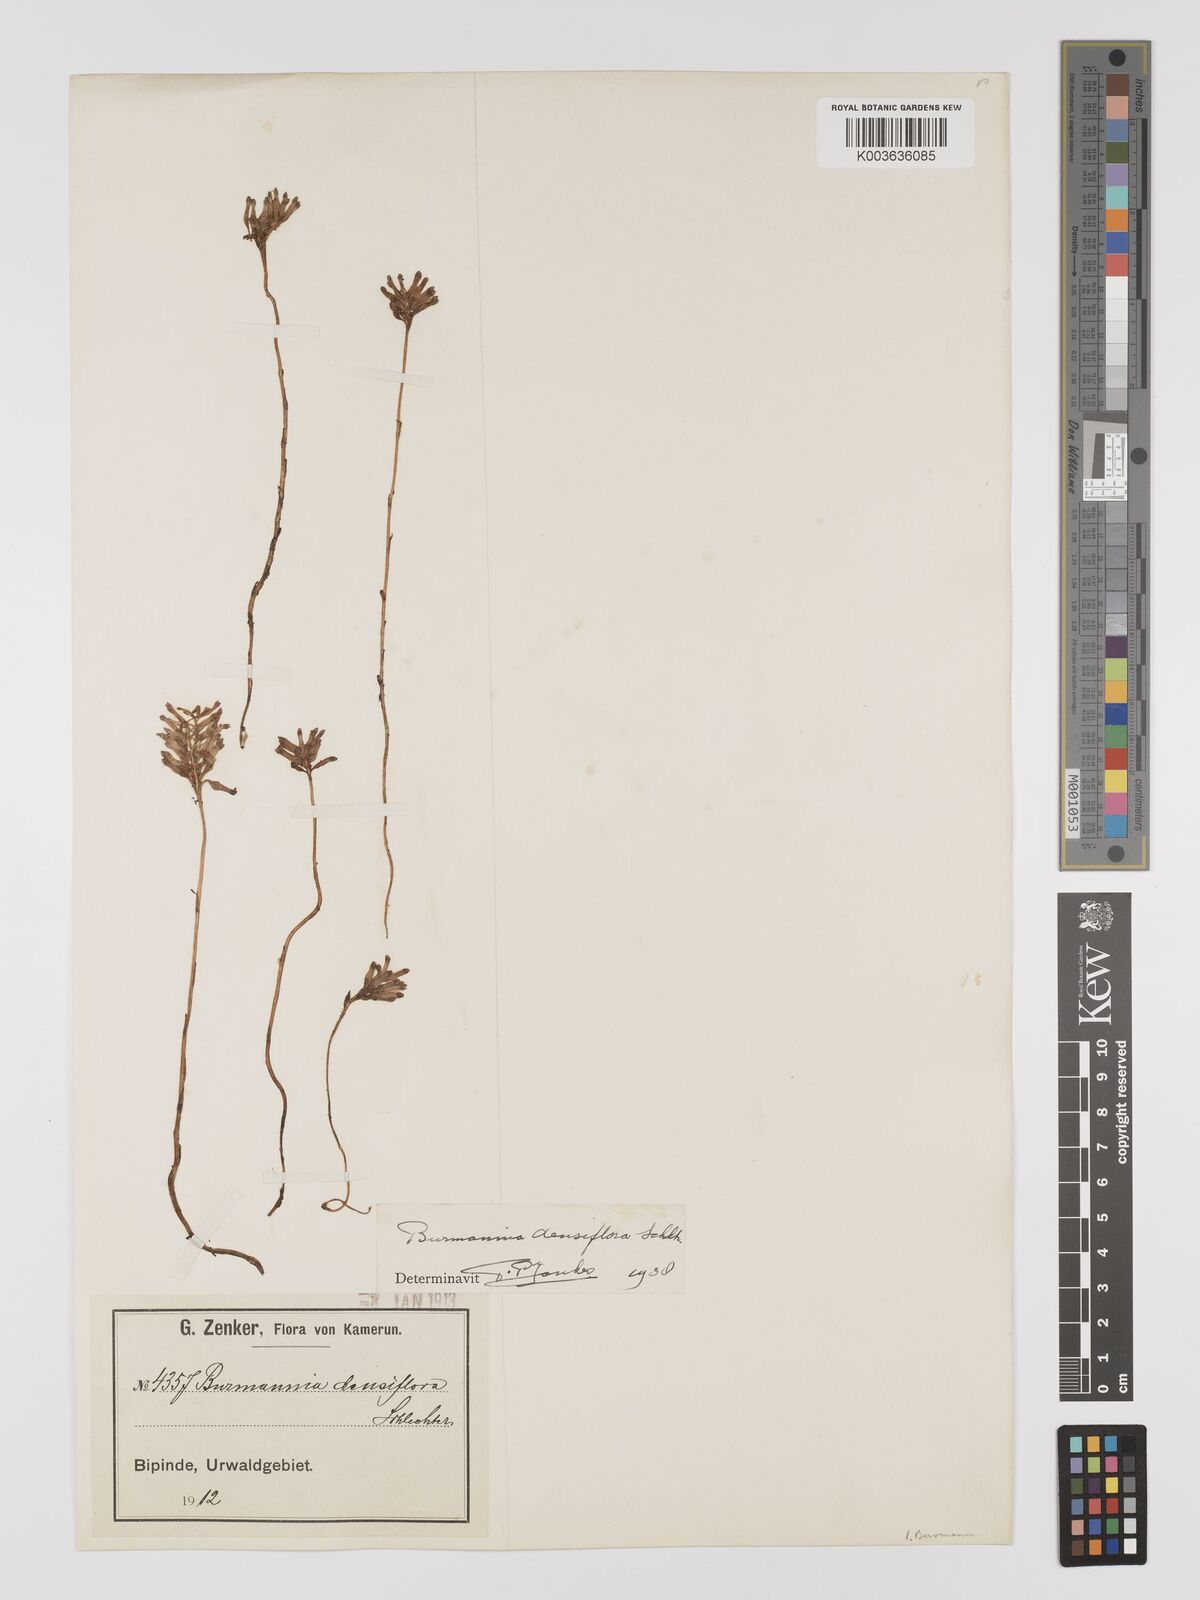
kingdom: Plantae
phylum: Tracheophyta
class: Liliopsida
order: Dioscoreales
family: Burmanniaceae
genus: Burmannia
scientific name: Burmannia hexaptera
